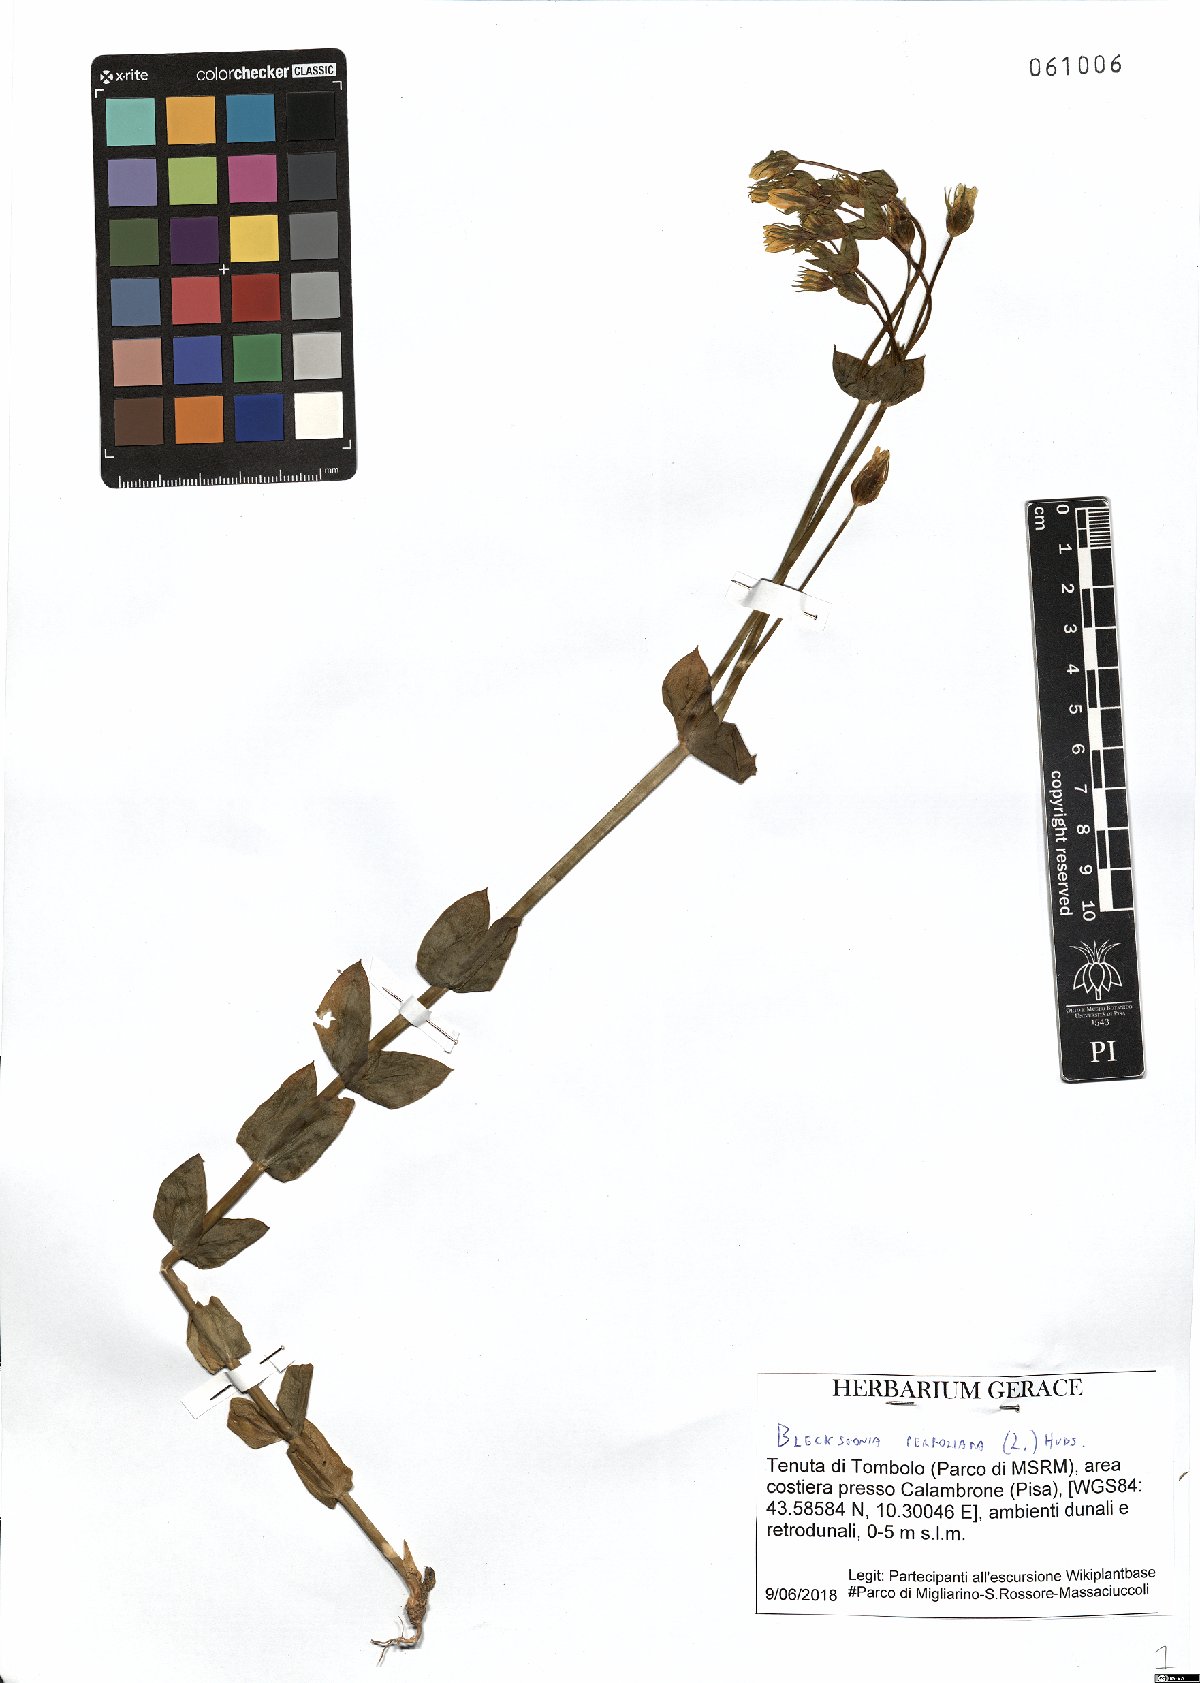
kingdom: Plantae
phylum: Tracheophyta
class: Magnoliopsida
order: Gentianales
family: Gentianaceae
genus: Blackstonia
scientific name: Blackstonia perfoliata
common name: Yellow-wort
